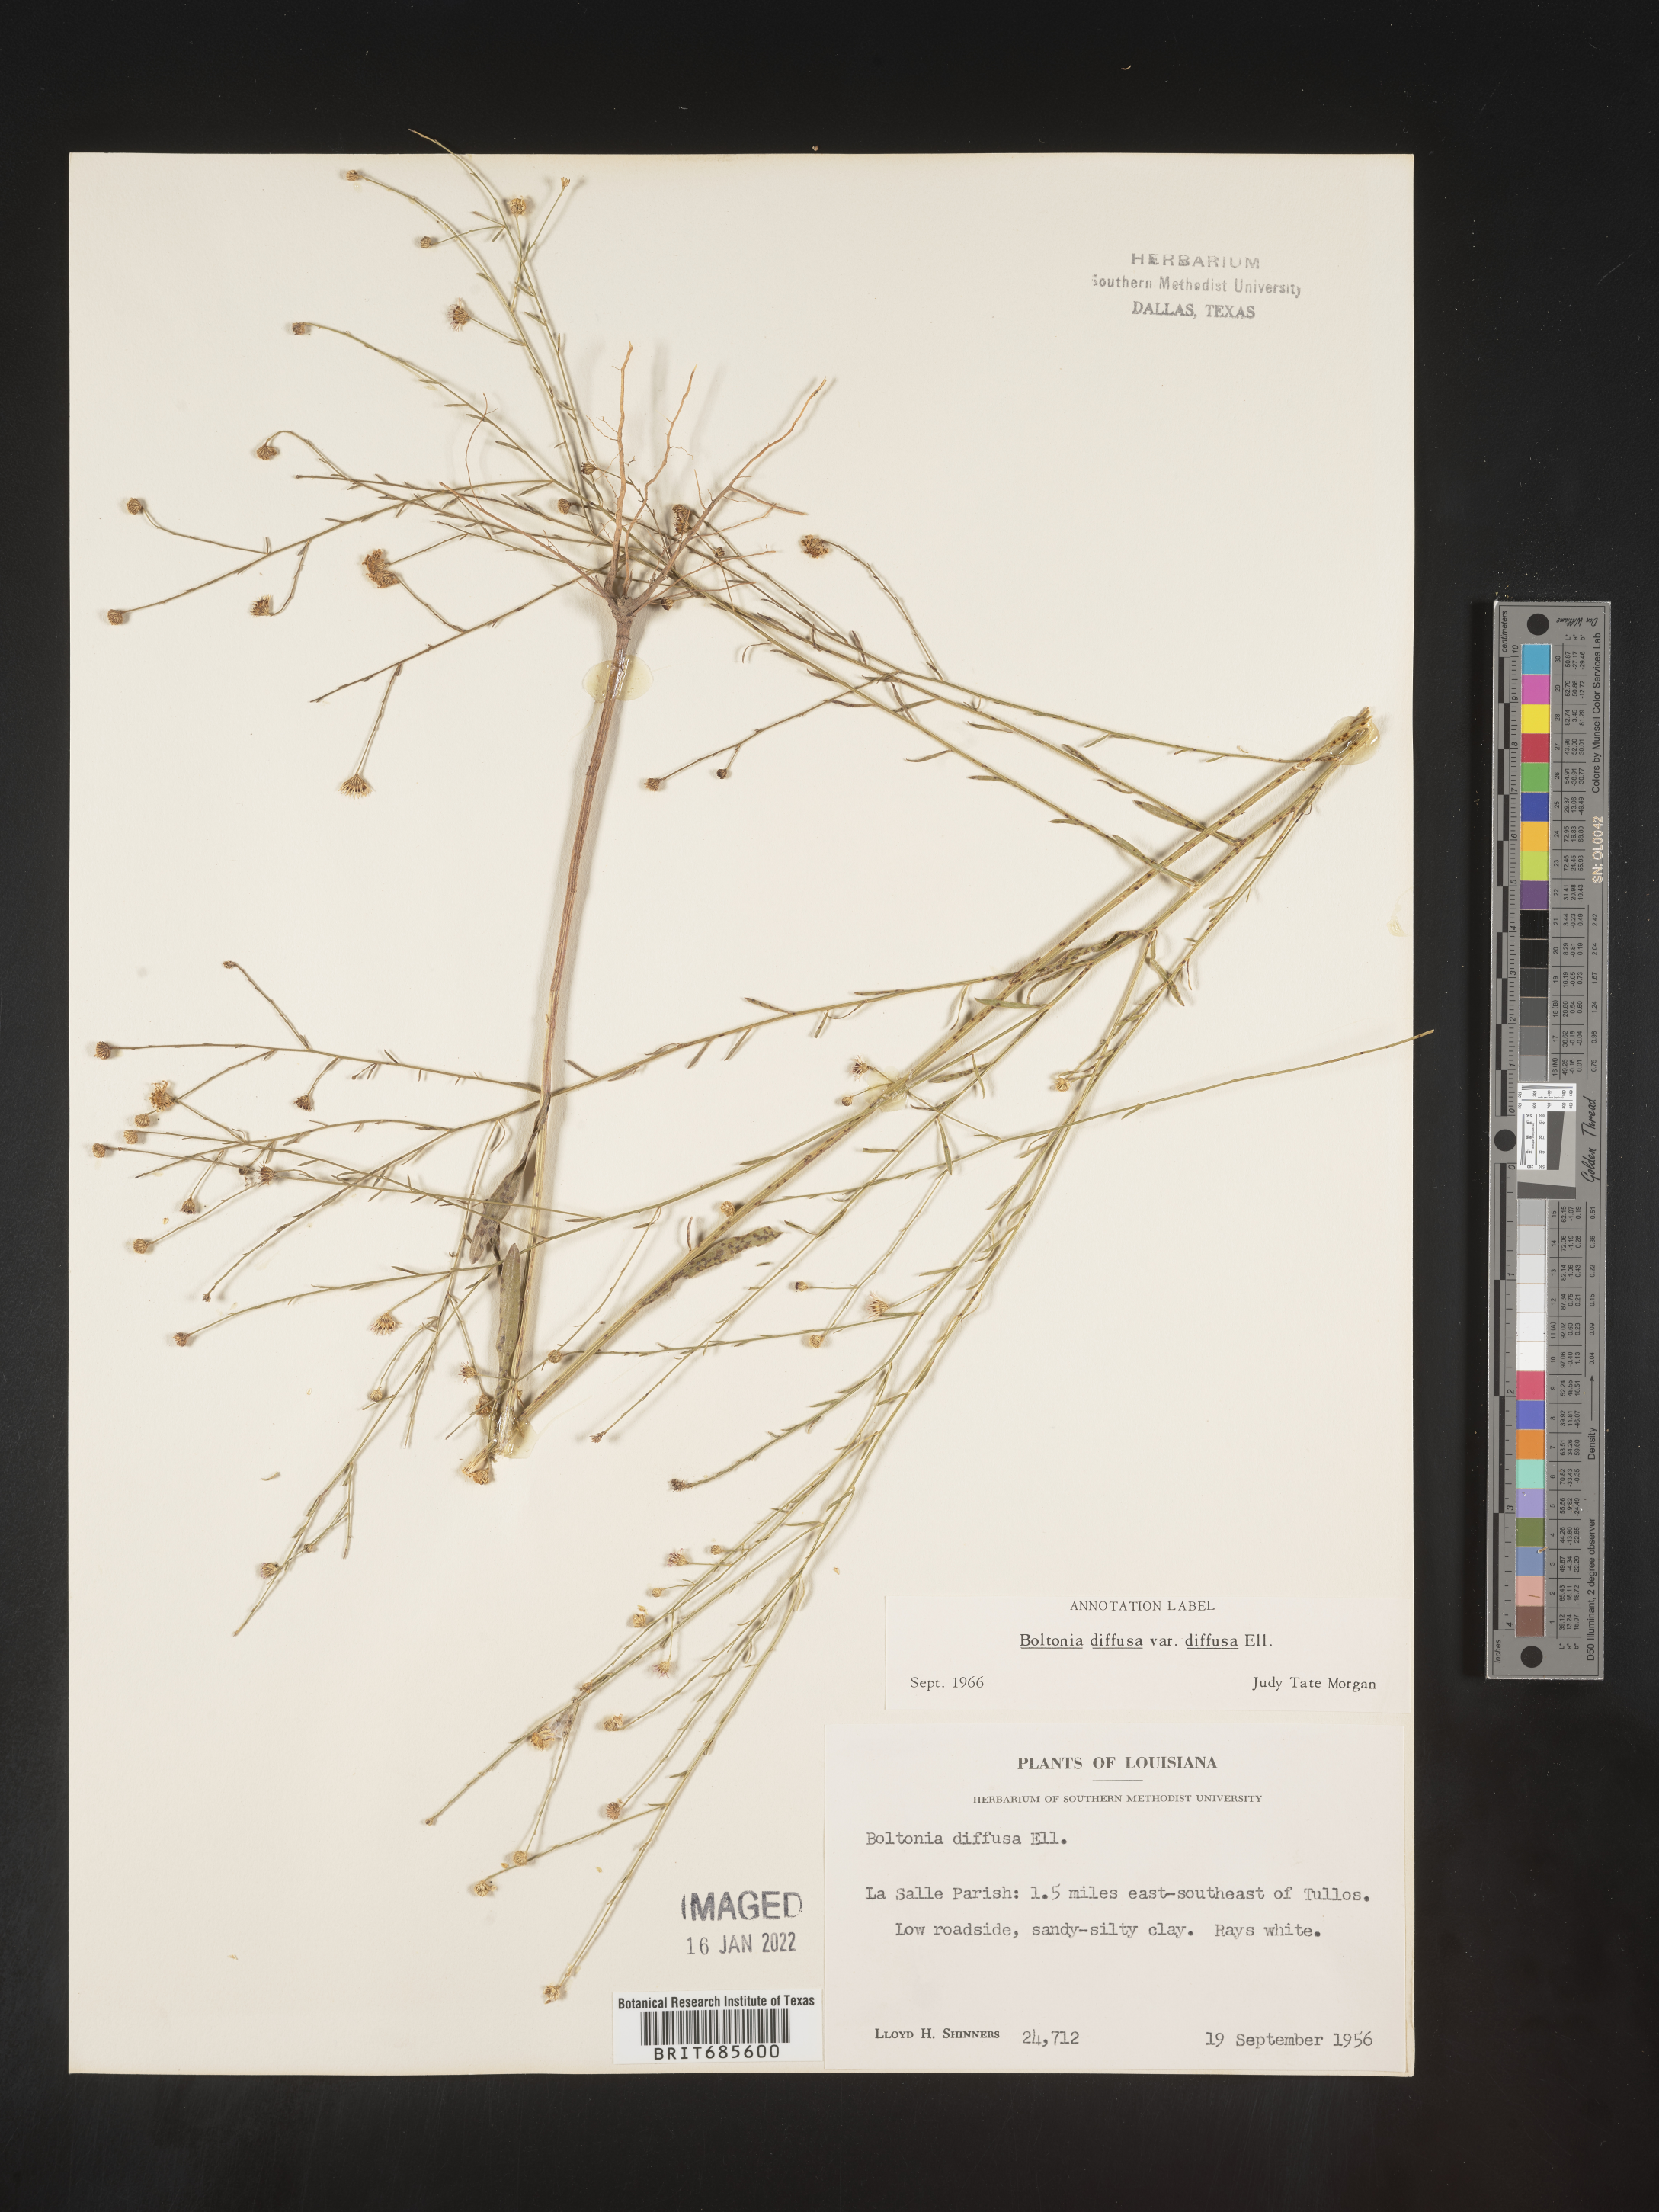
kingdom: Plantae
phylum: Tracheophyta
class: Magnoliopsida
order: Asterales
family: Asteraceae
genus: Boltonia
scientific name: Boltonia diffusa
